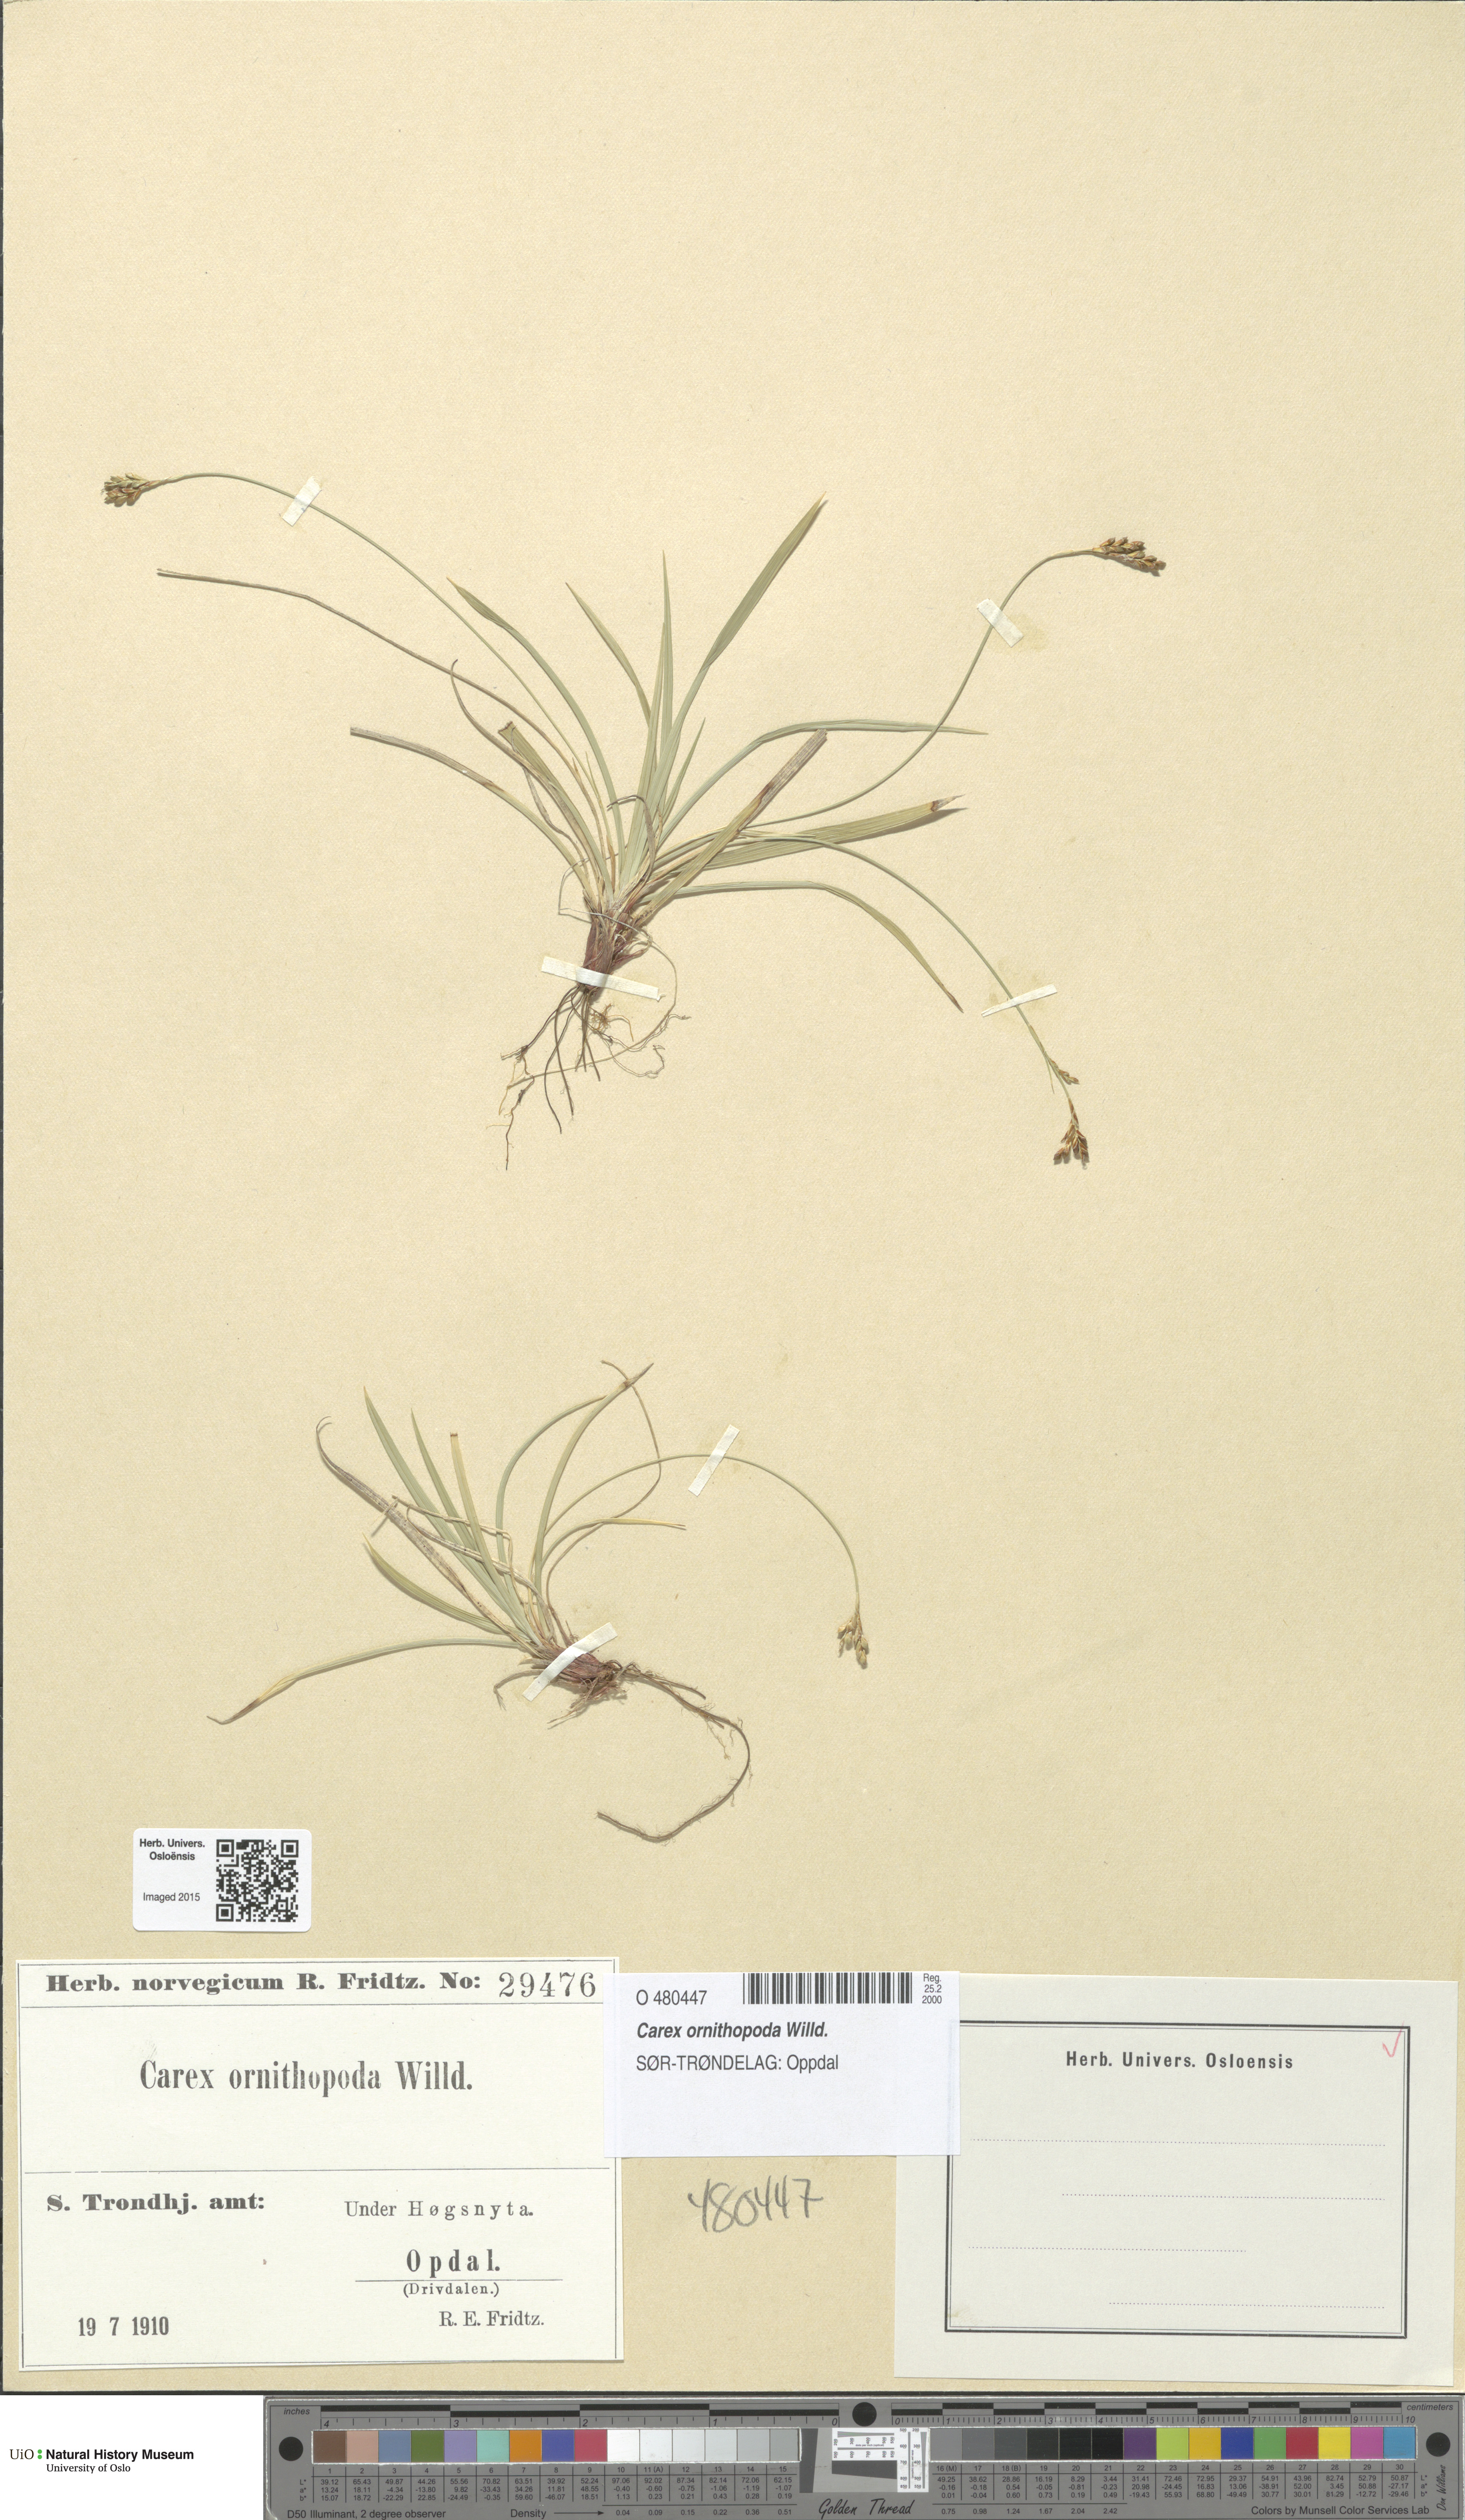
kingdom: Plantae
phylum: Tracheophyta
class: Liliopsida
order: Poales
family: Cyperaceae
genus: Carex
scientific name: Carex ornithopoda
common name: Bird's-foot sedge
